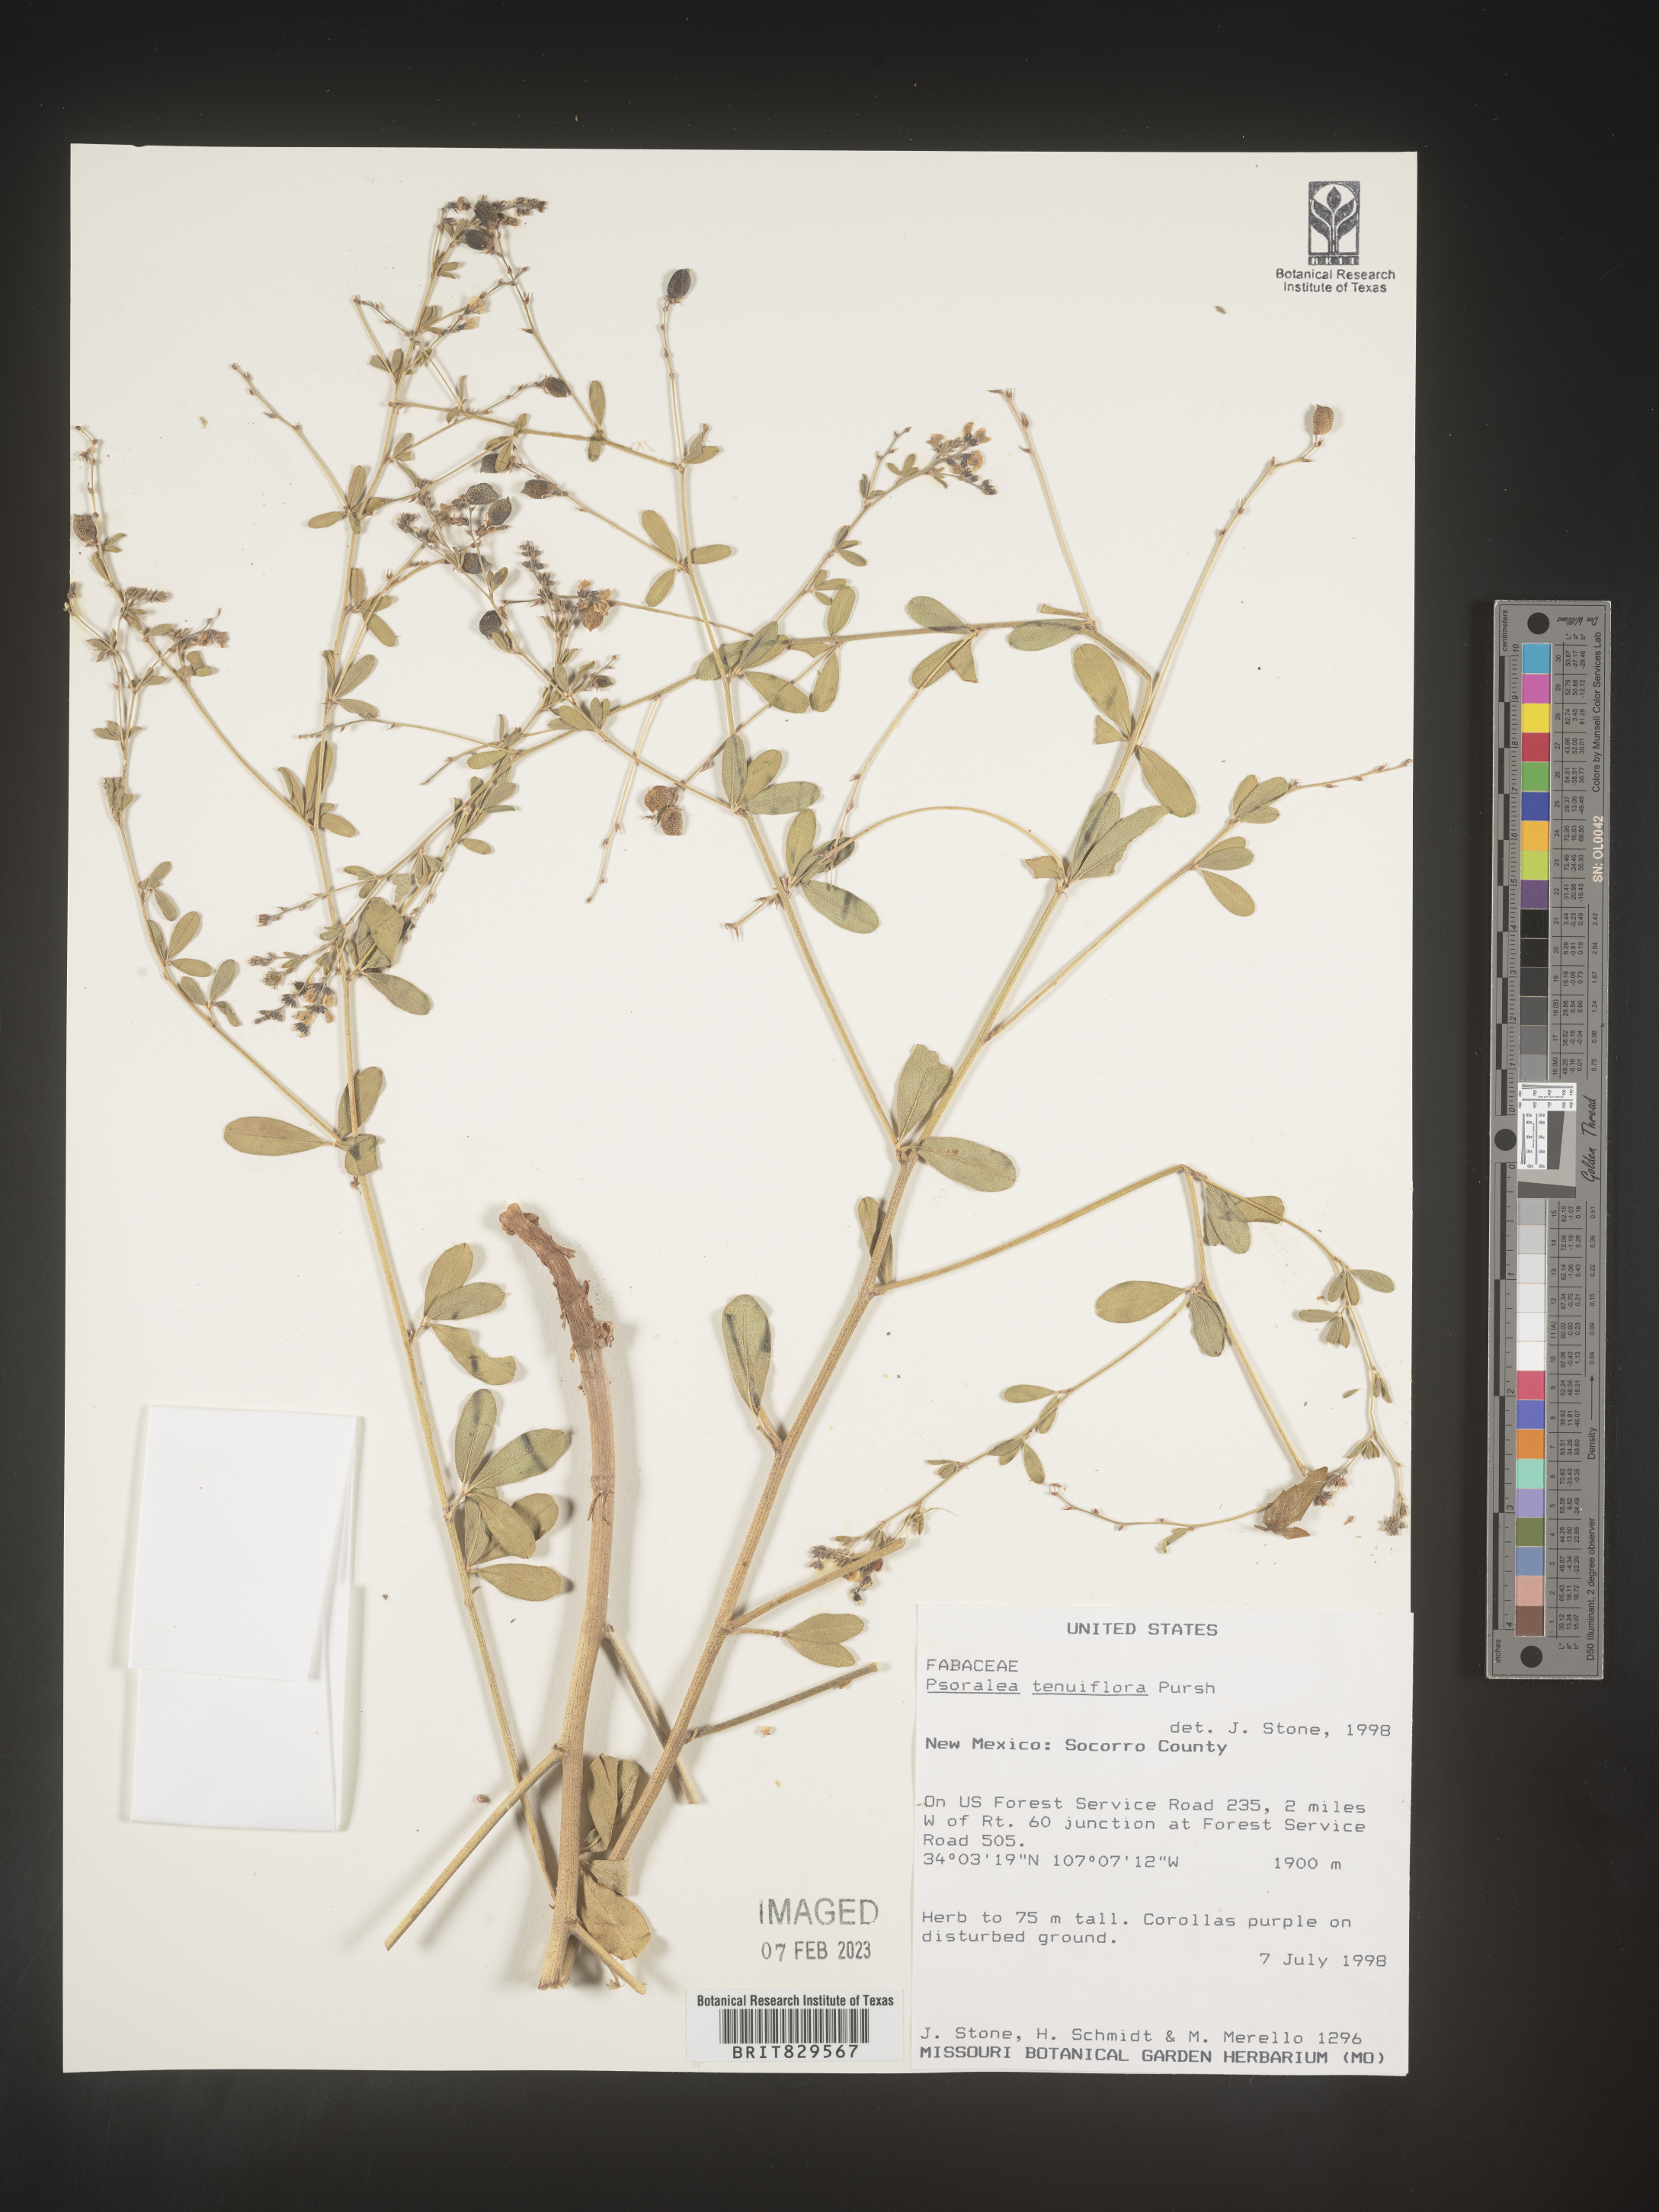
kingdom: Plantae
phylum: Tracheophyta
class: Magnoliopsida
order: Fabales
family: Fabaceae
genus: Pediomelum
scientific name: Pediomelum tenuiflorum
